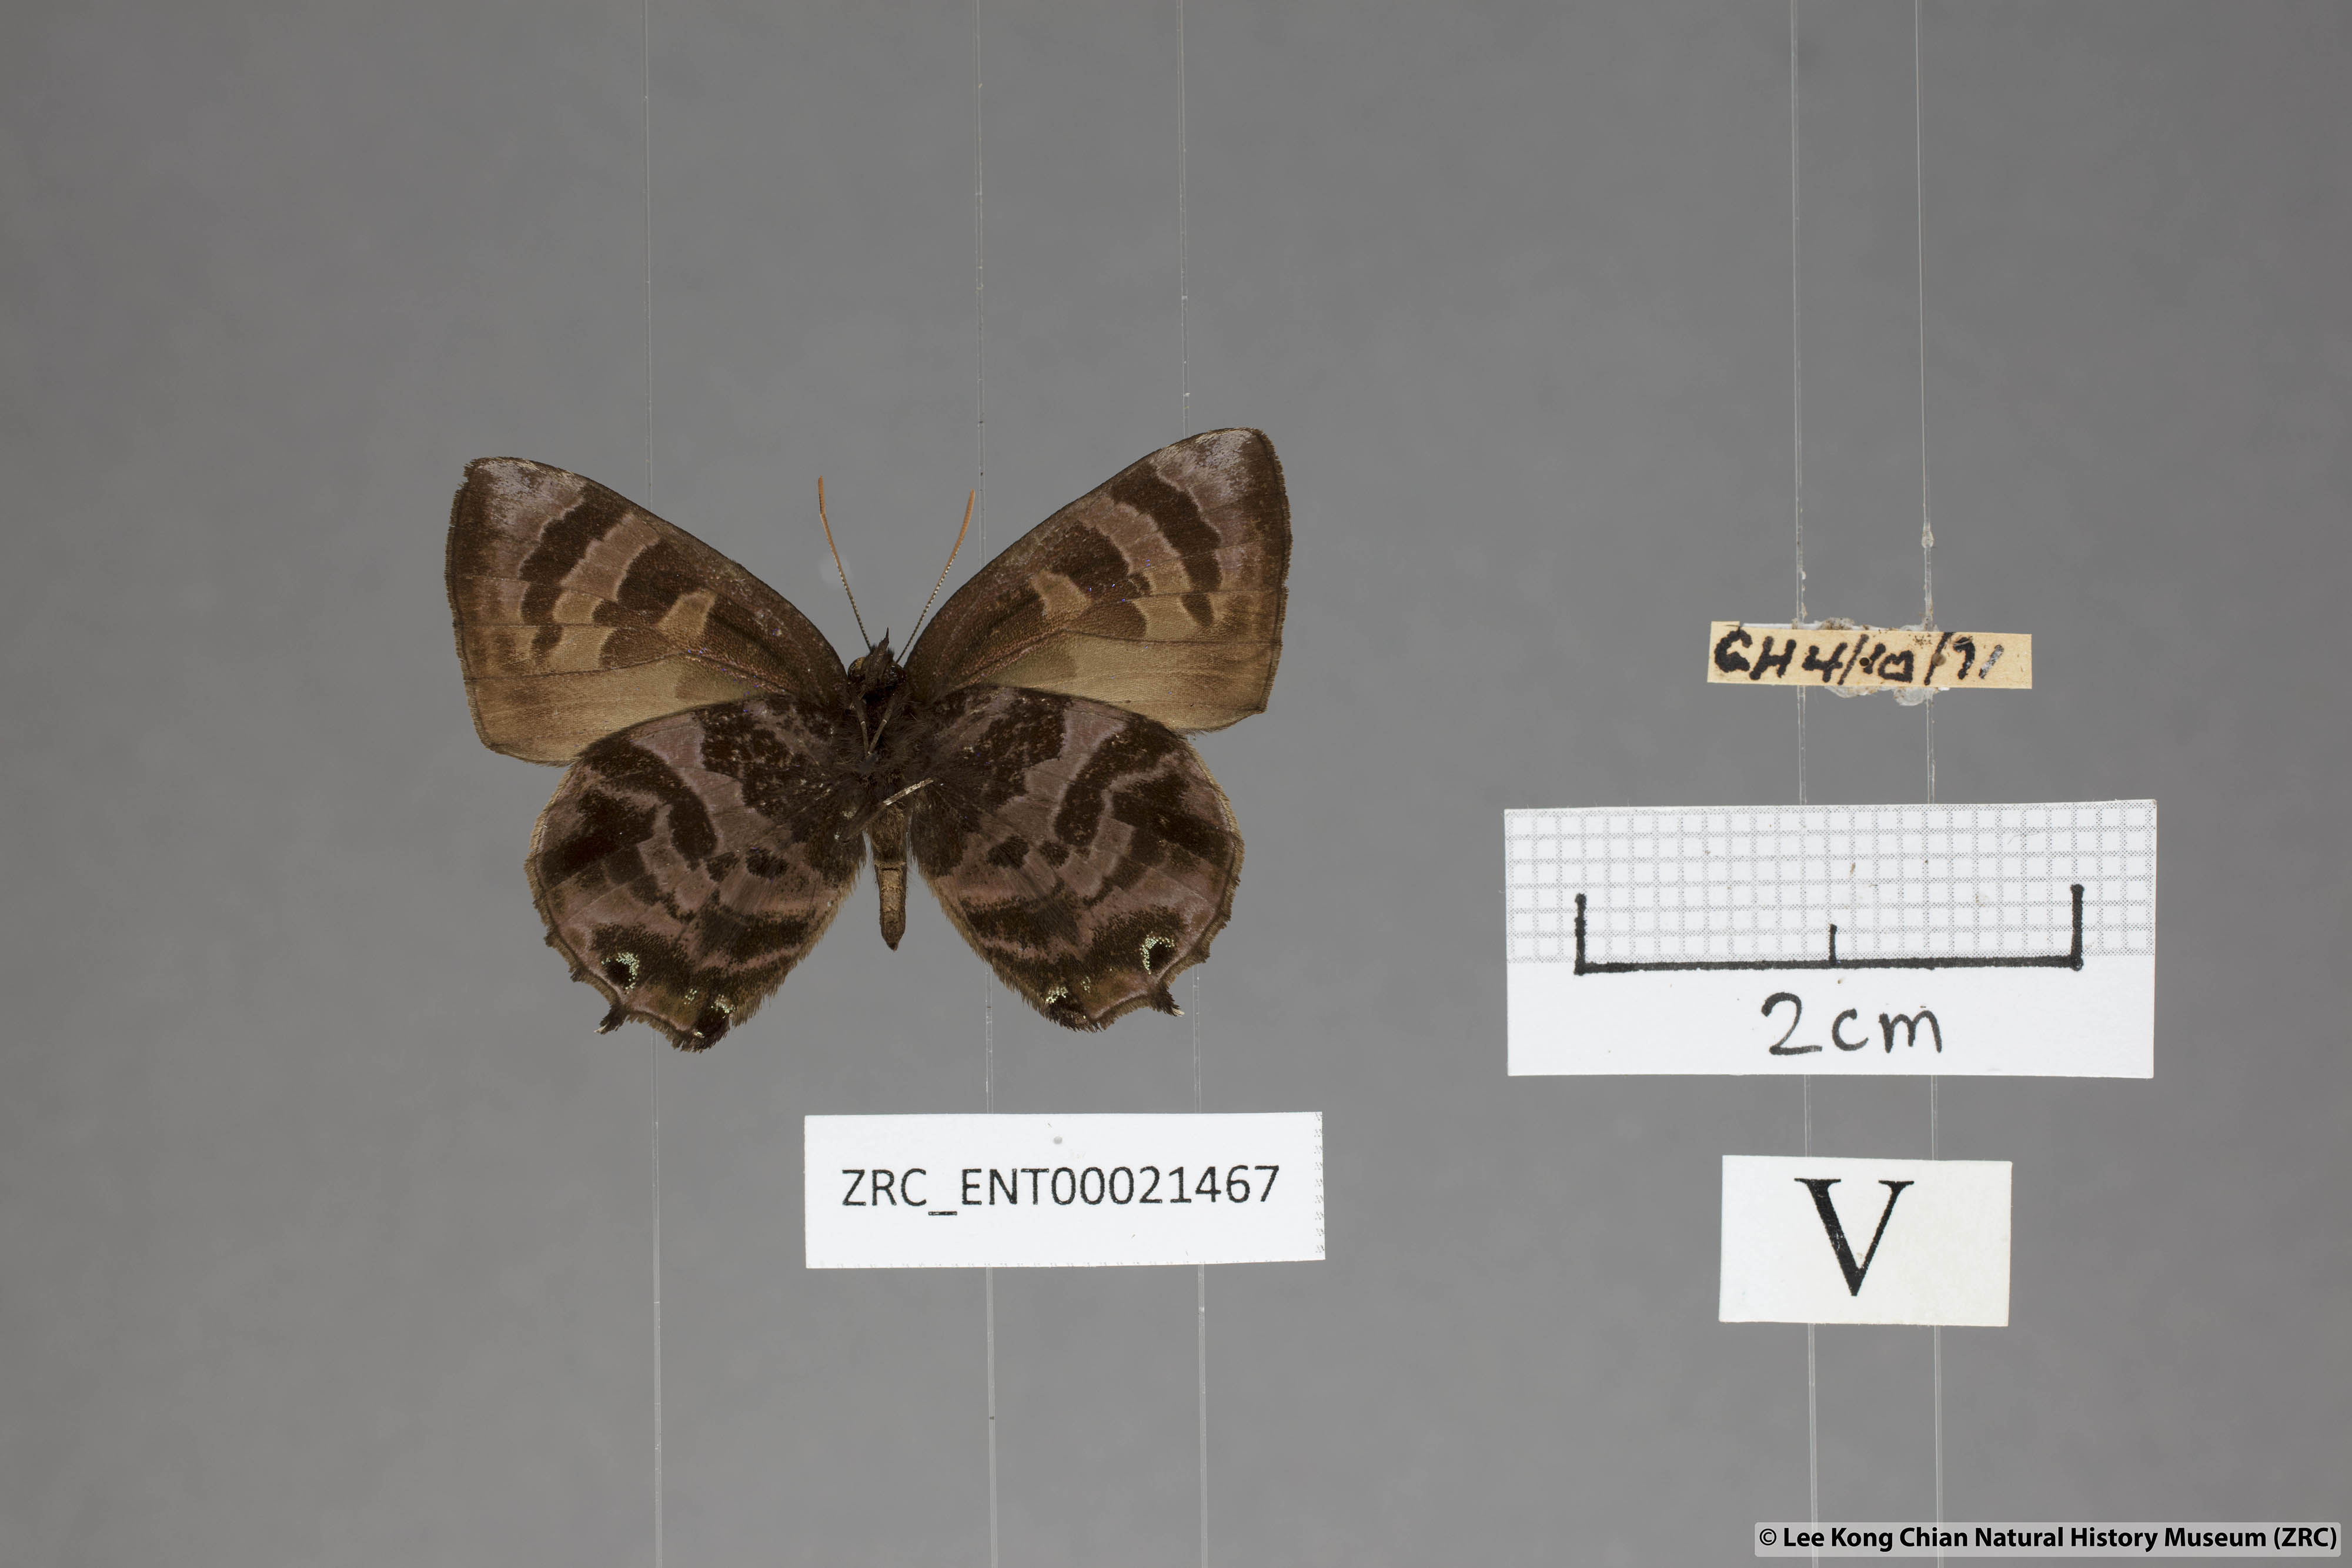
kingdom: Animalia
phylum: Arthropoda
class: Insecta
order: Lepidoptera
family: Lycaenidae
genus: Flos
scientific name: Flos
